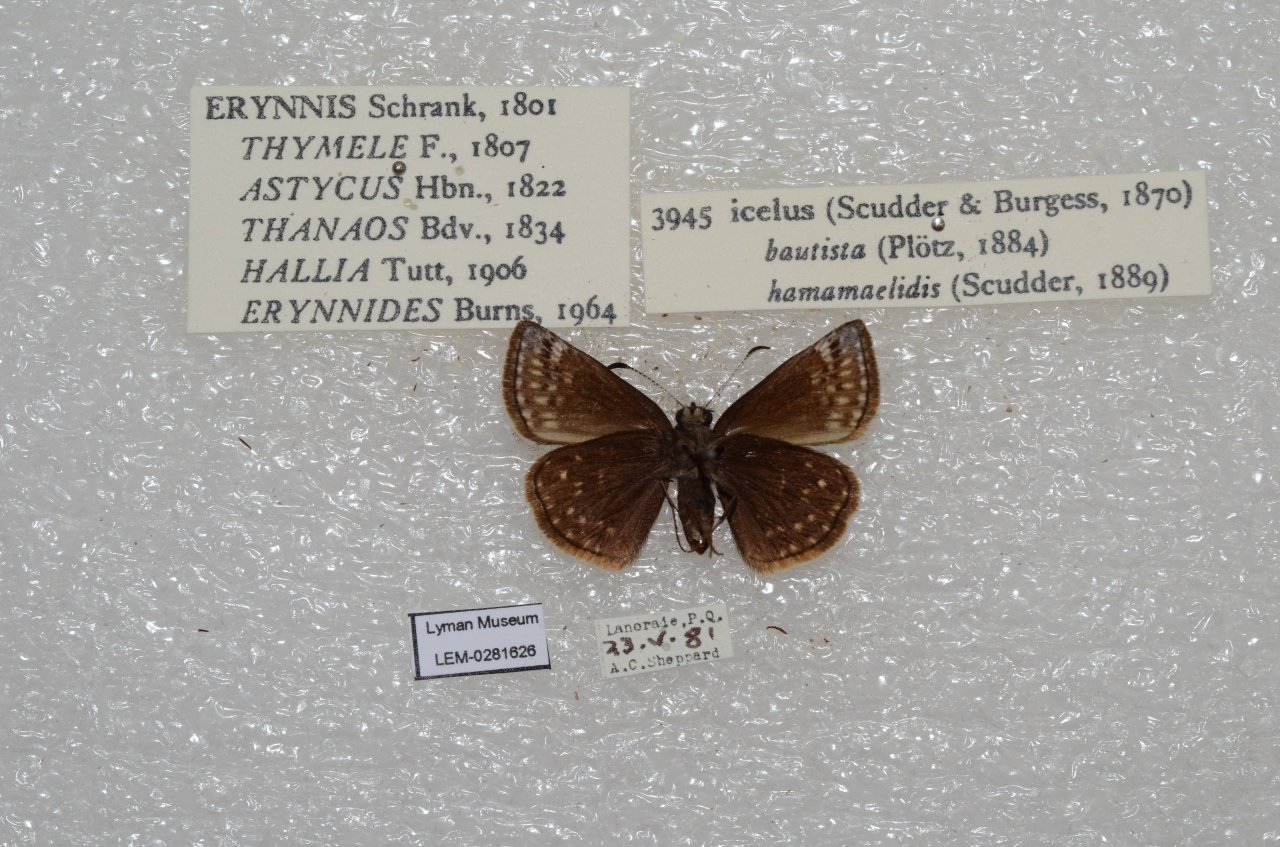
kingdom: Animalia
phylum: Arthropoda
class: Insecta
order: Lepidoptera
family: Hesperiidae
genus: Erynnis
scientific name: Erynnis icelus
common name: Dreamy Duskywing
